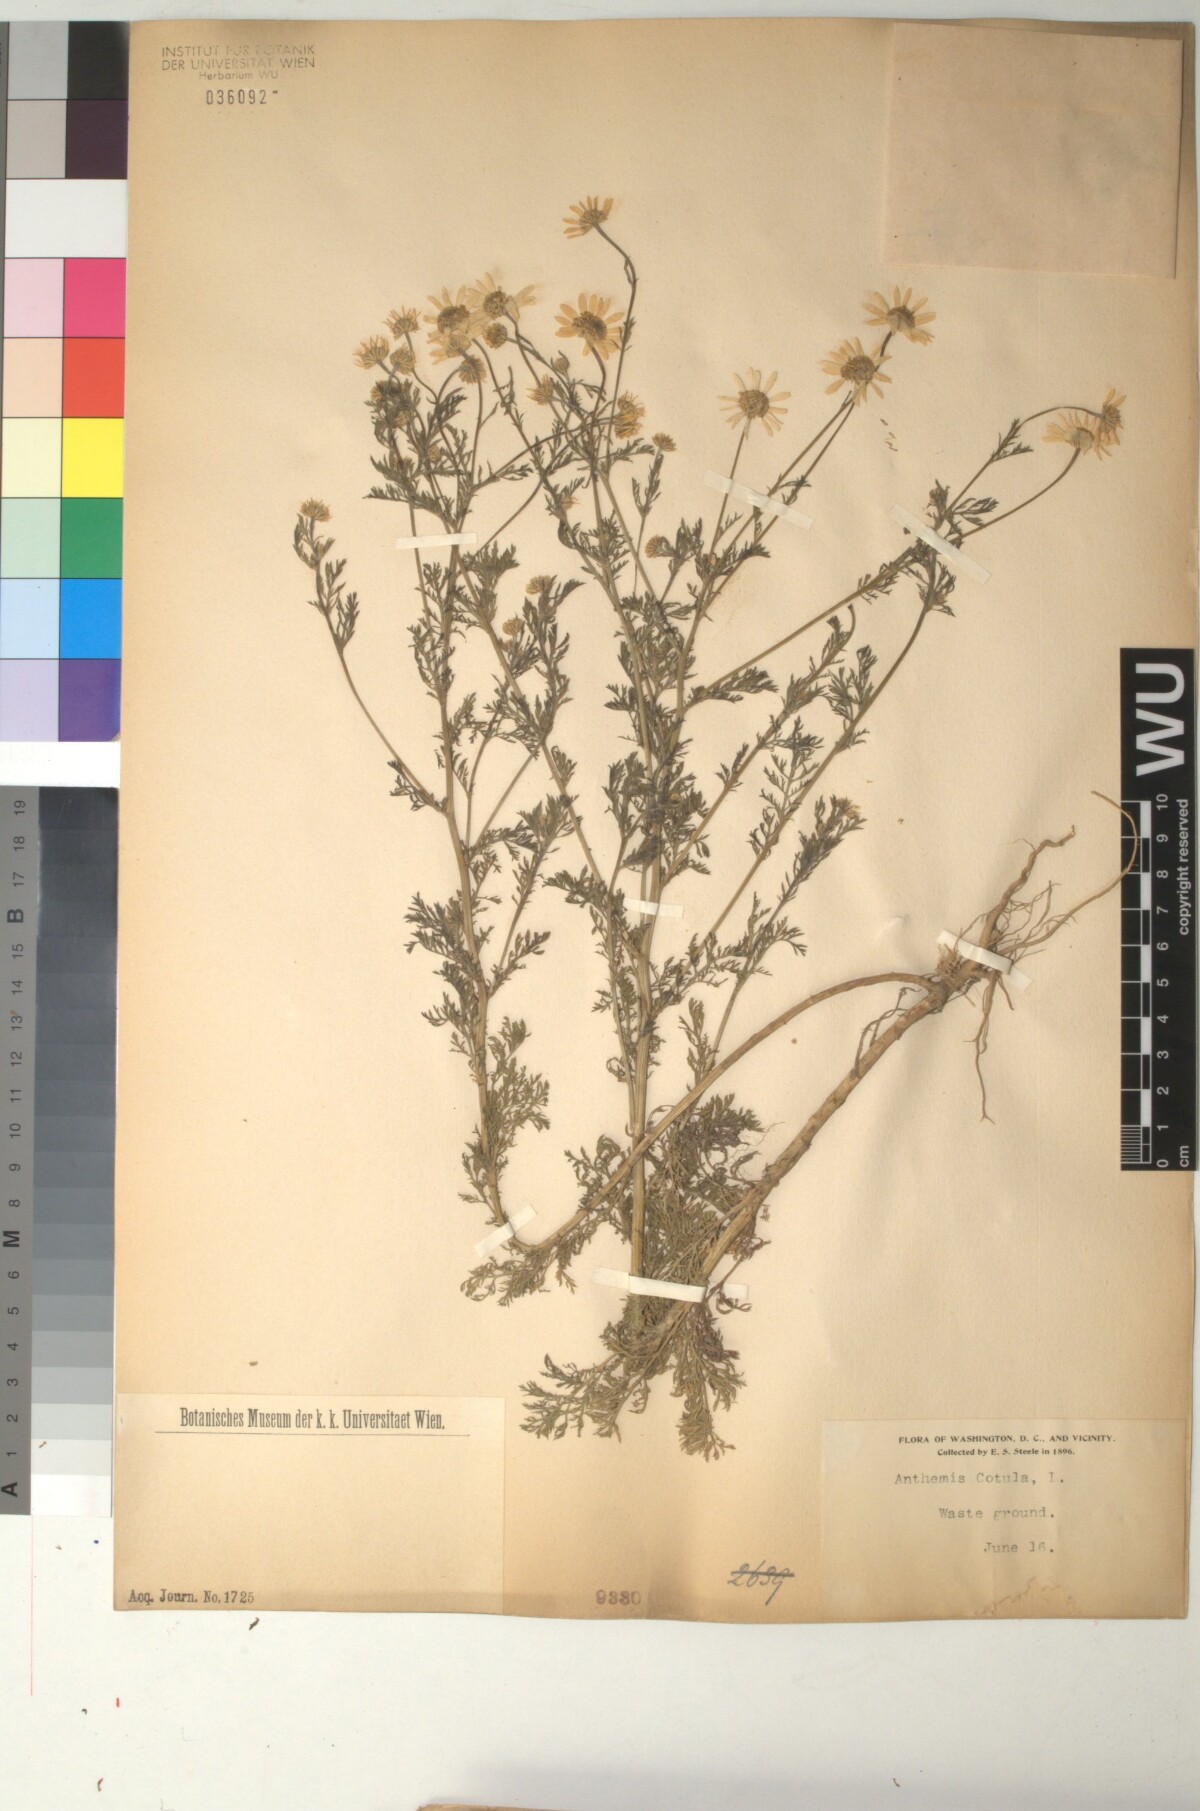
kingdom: Plantae
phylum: Tracheophyta
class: Magnoliopsida
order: Asterales
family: Asteraceae
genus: Anthemis
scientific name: Anthemis cotula
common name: Stinking chamomile
